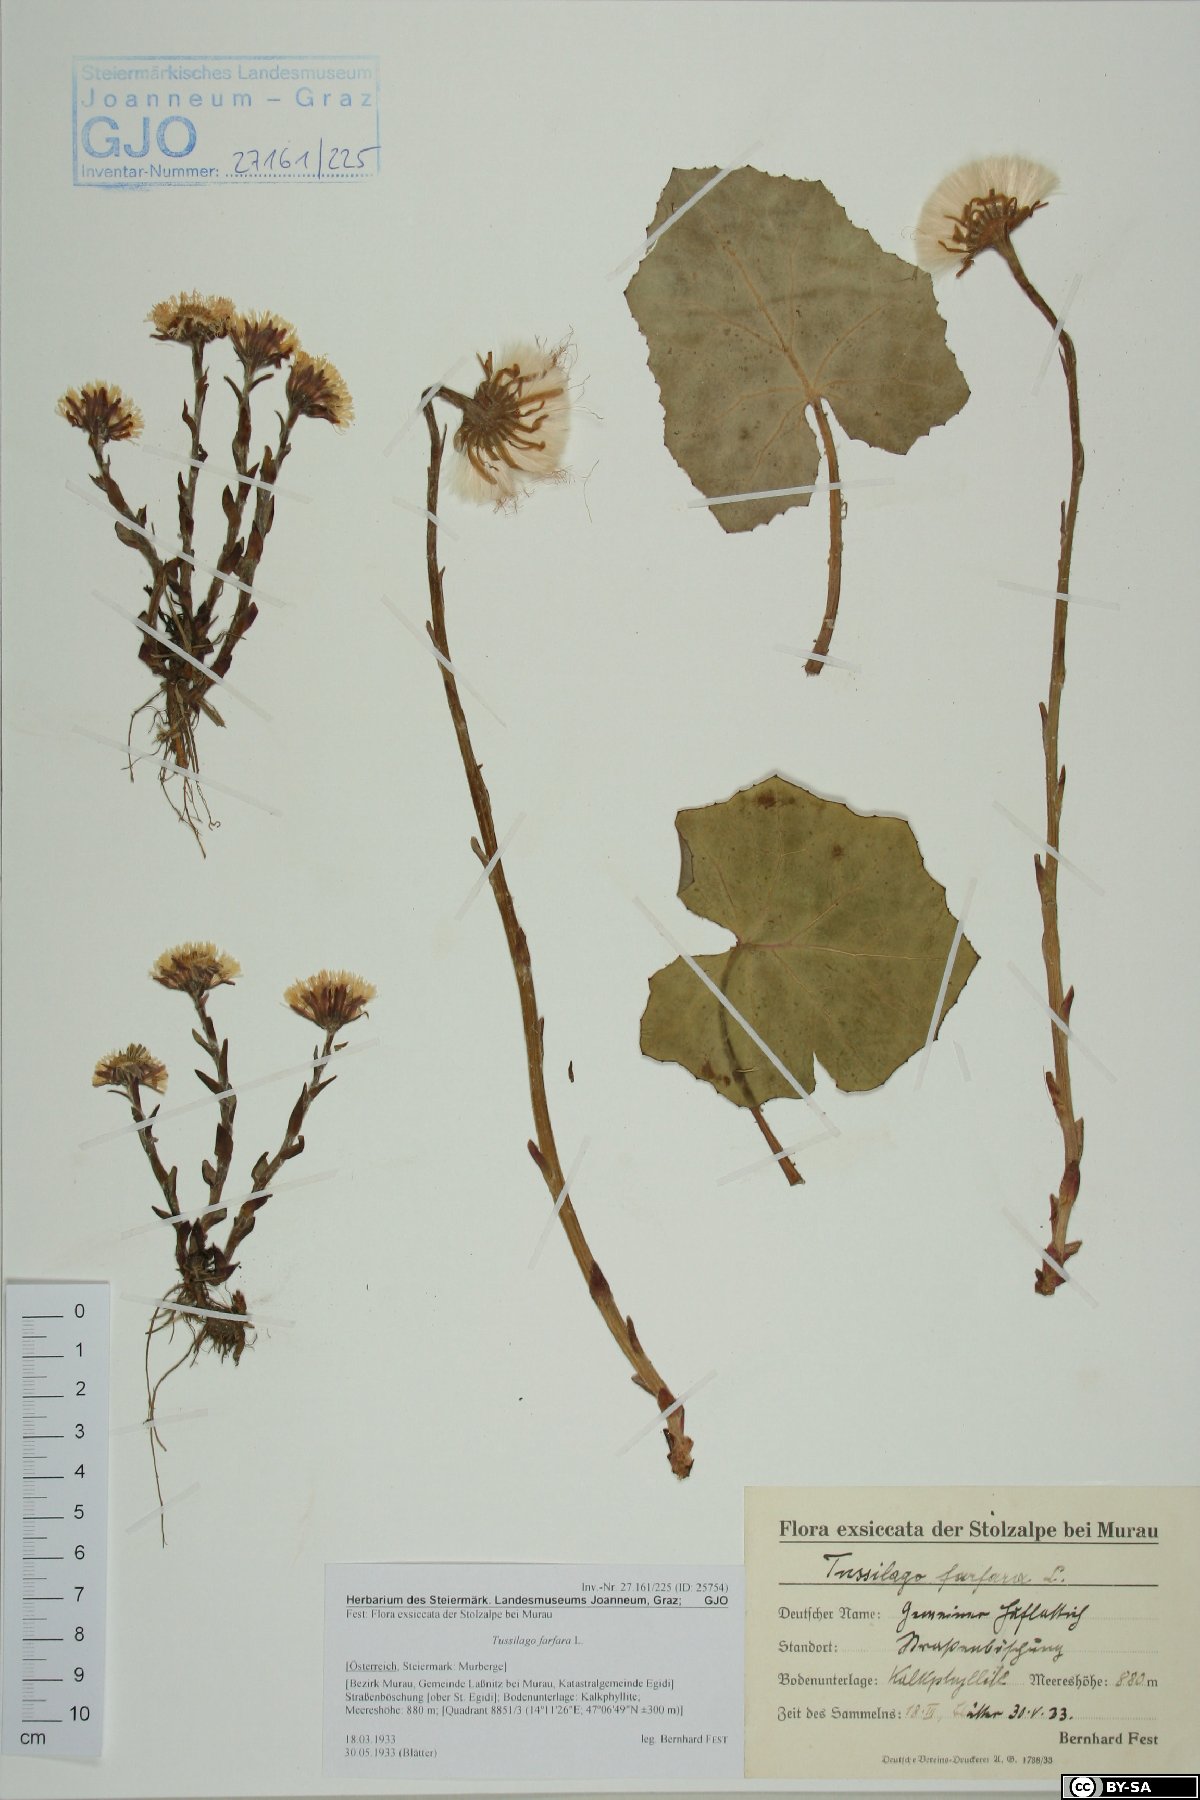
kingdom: Plantae
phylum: Tracheophyta
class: Magnoliopsida
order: Asterales
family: Asteraceae
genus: Tussilago
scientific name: Tussilago farfara
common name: Coltsfoot
